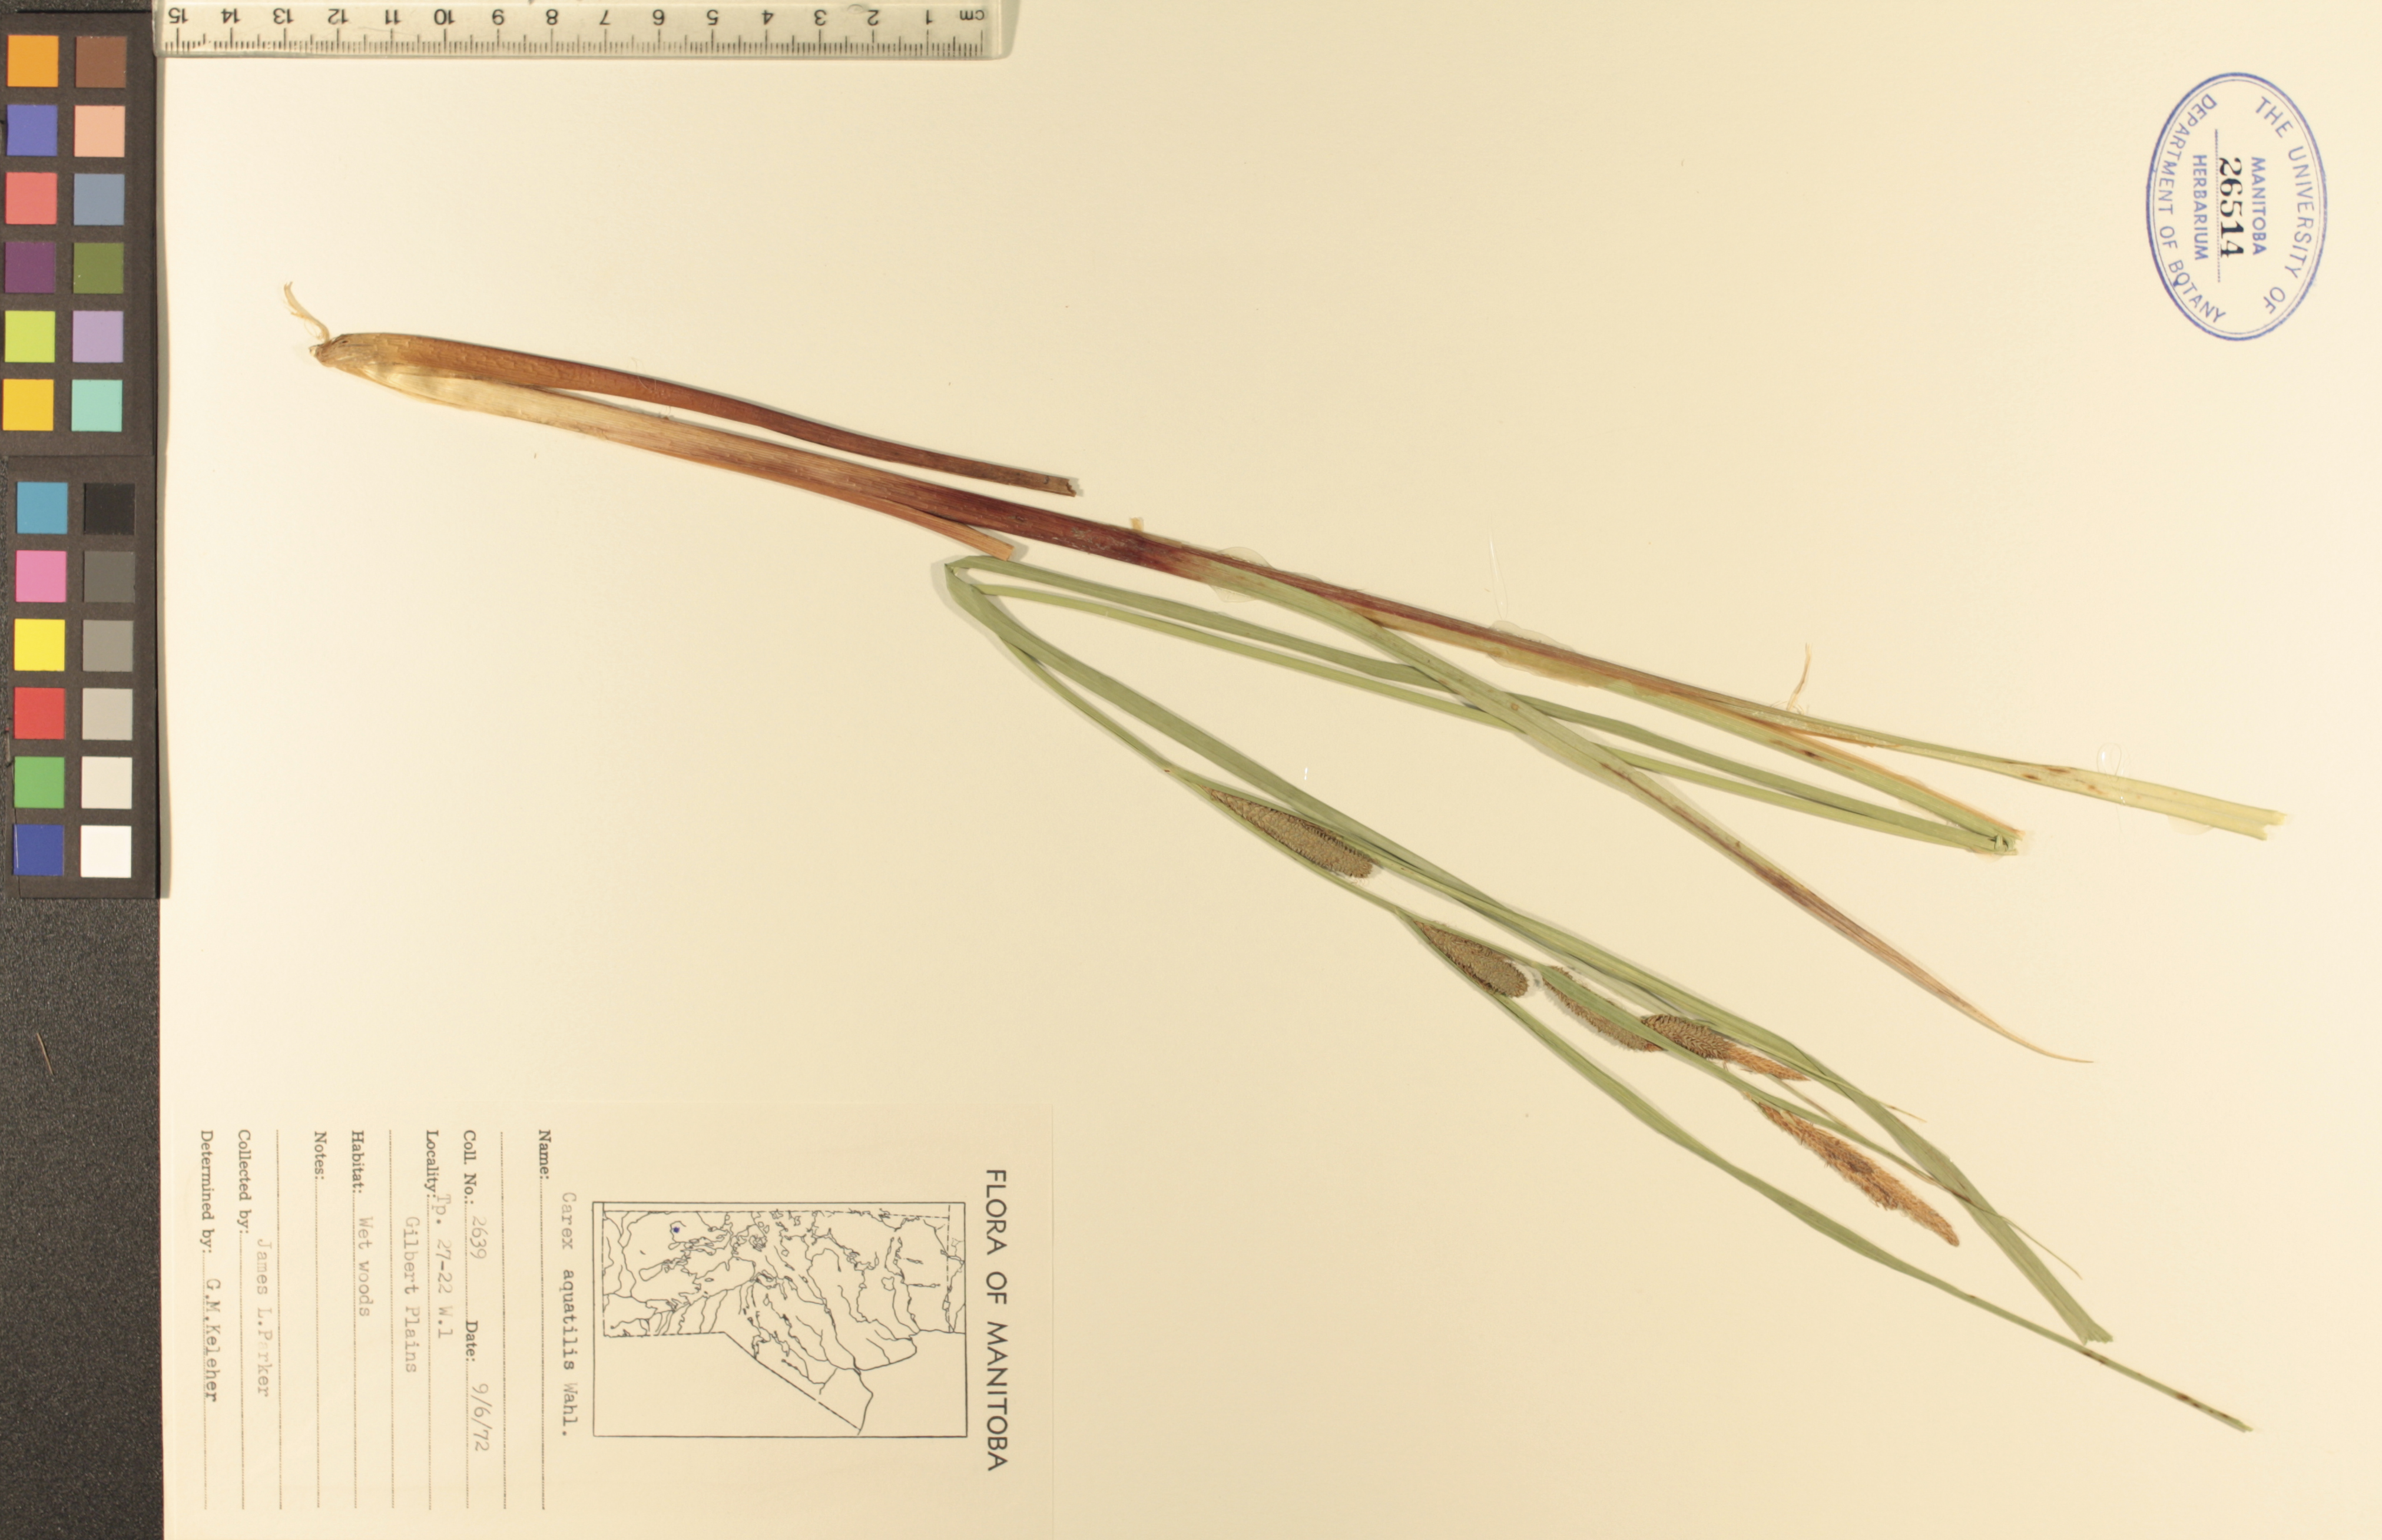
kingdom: Plantae
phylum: Tracheophyta
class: Liliopsida
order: Poales
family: Cyperaceae
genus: Carex
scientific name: Carex aquatilis
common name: Water sedge
